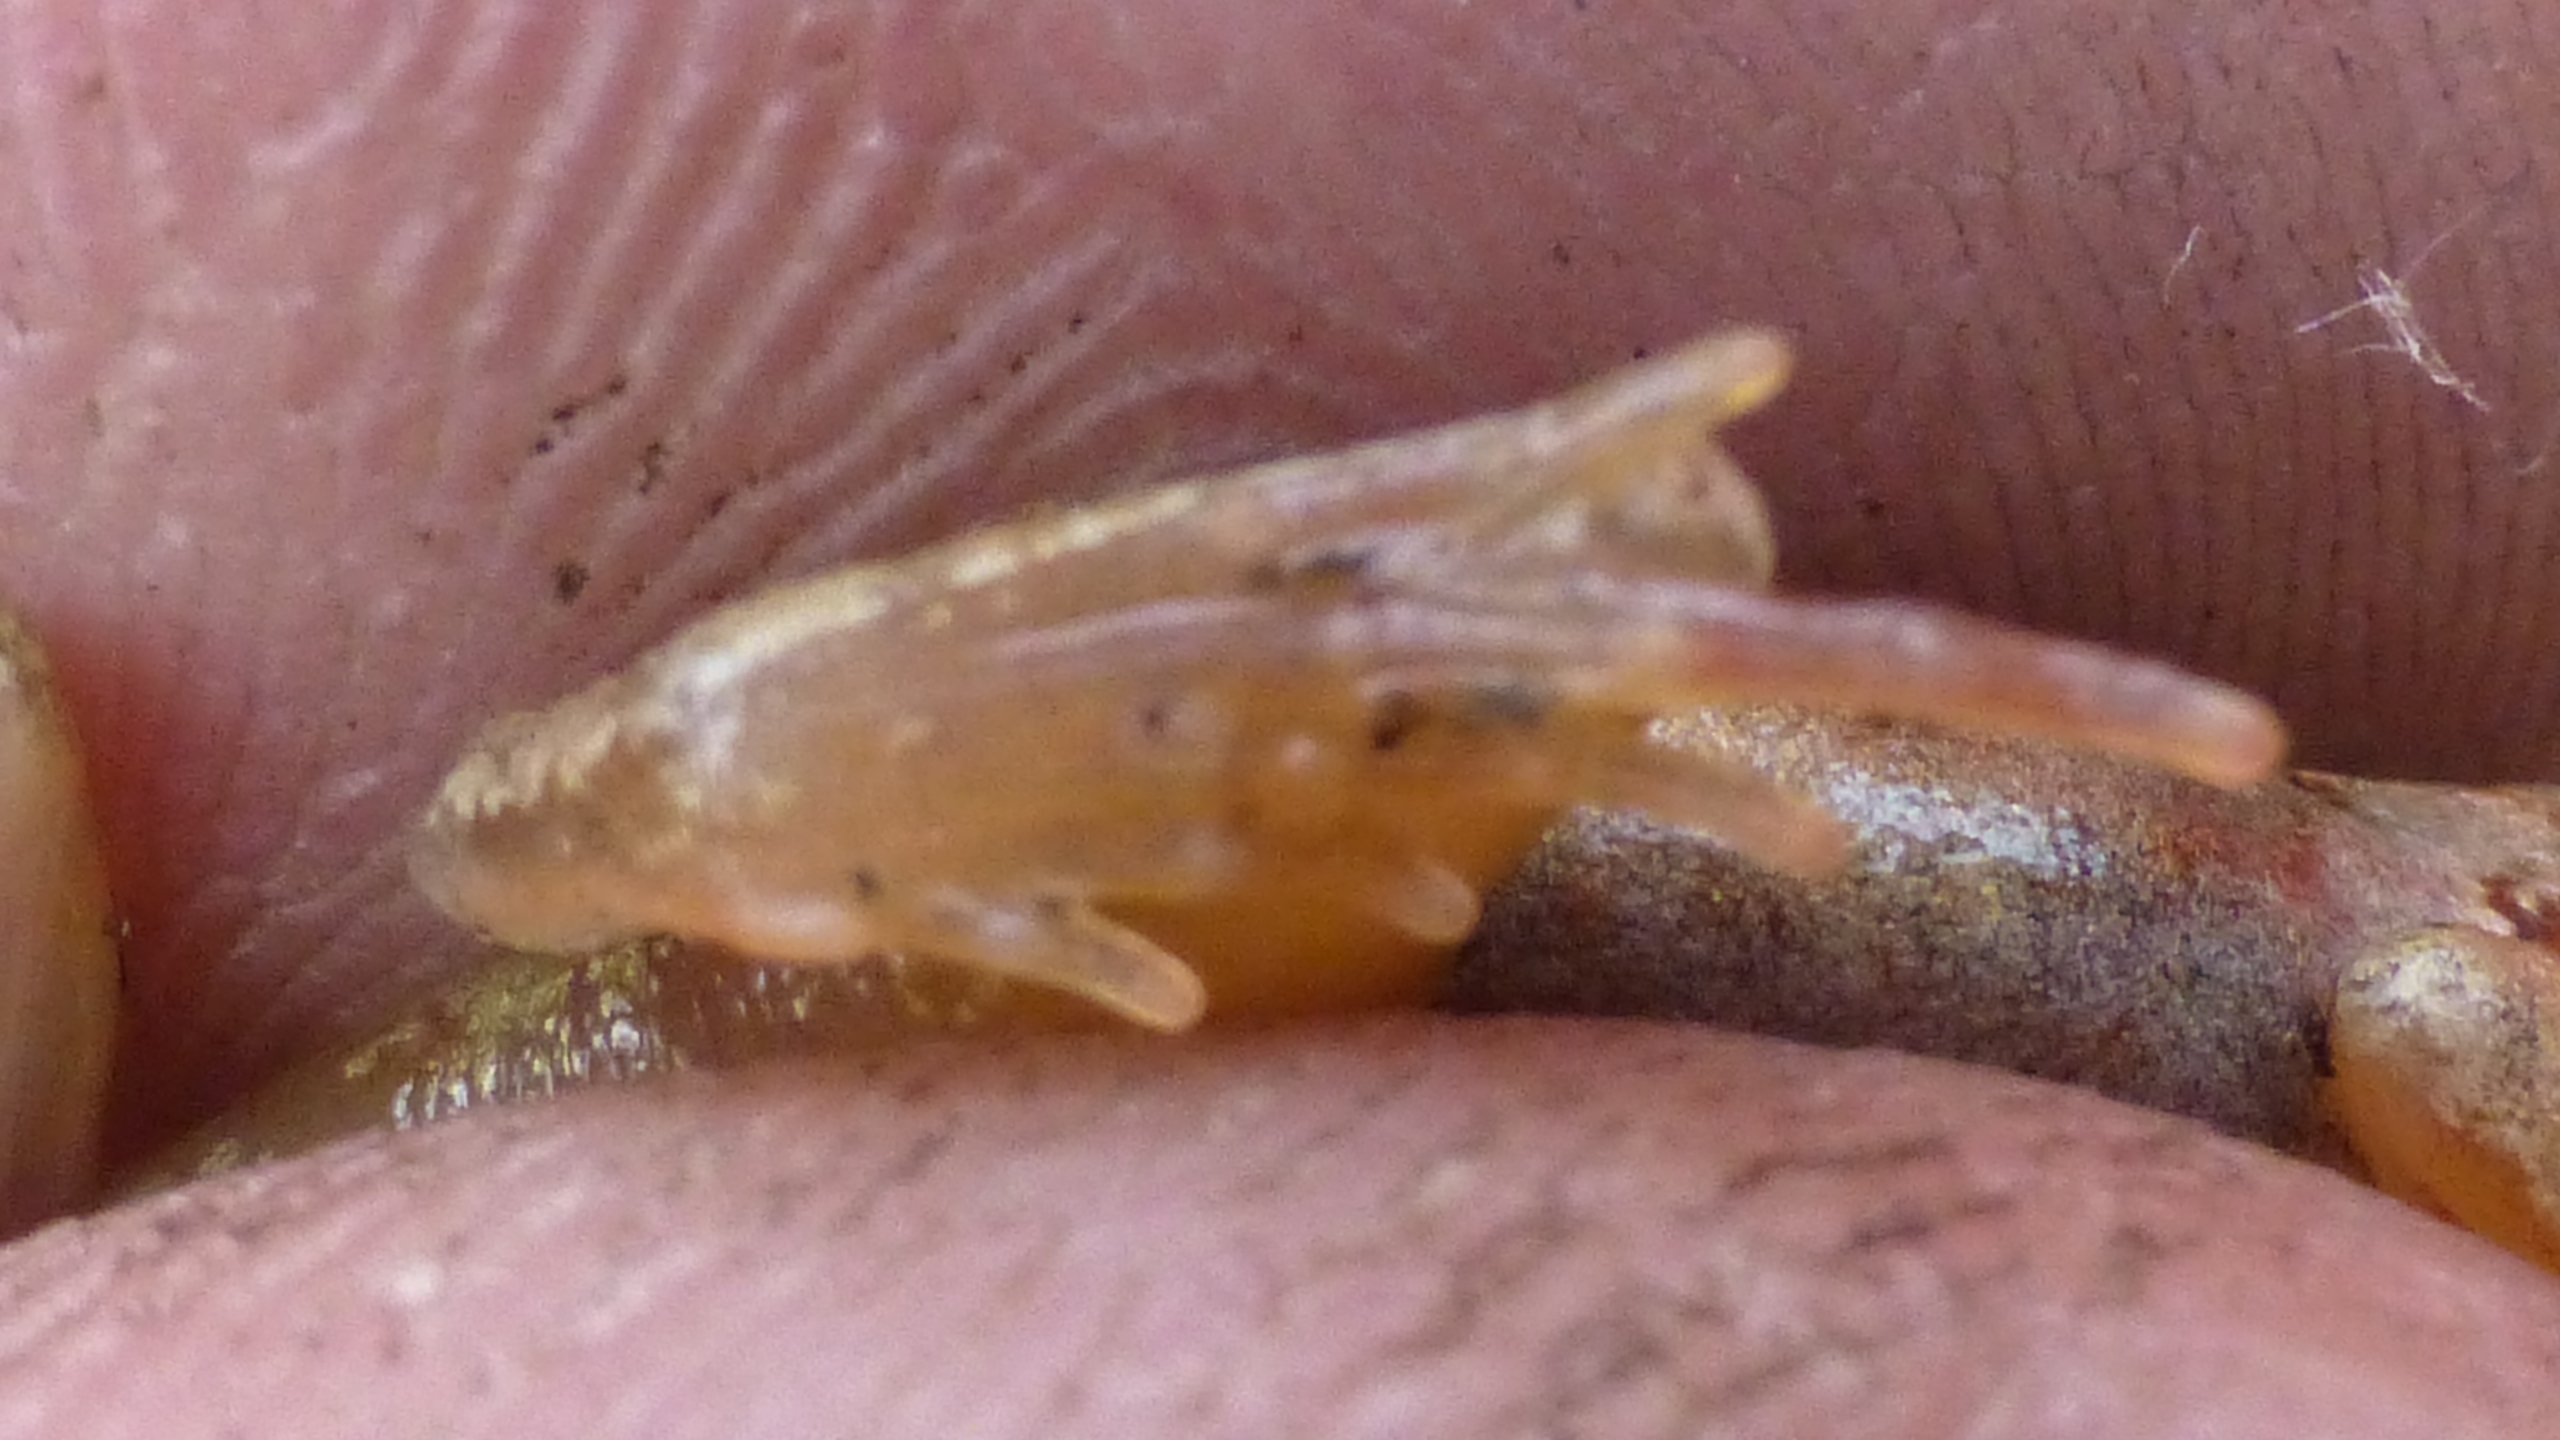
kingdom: Animalia
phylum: Chordata
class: Amphibia
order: Anura
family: Ranidae
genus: Rana
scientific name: Rana temporaria
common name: Butsnudet frø
